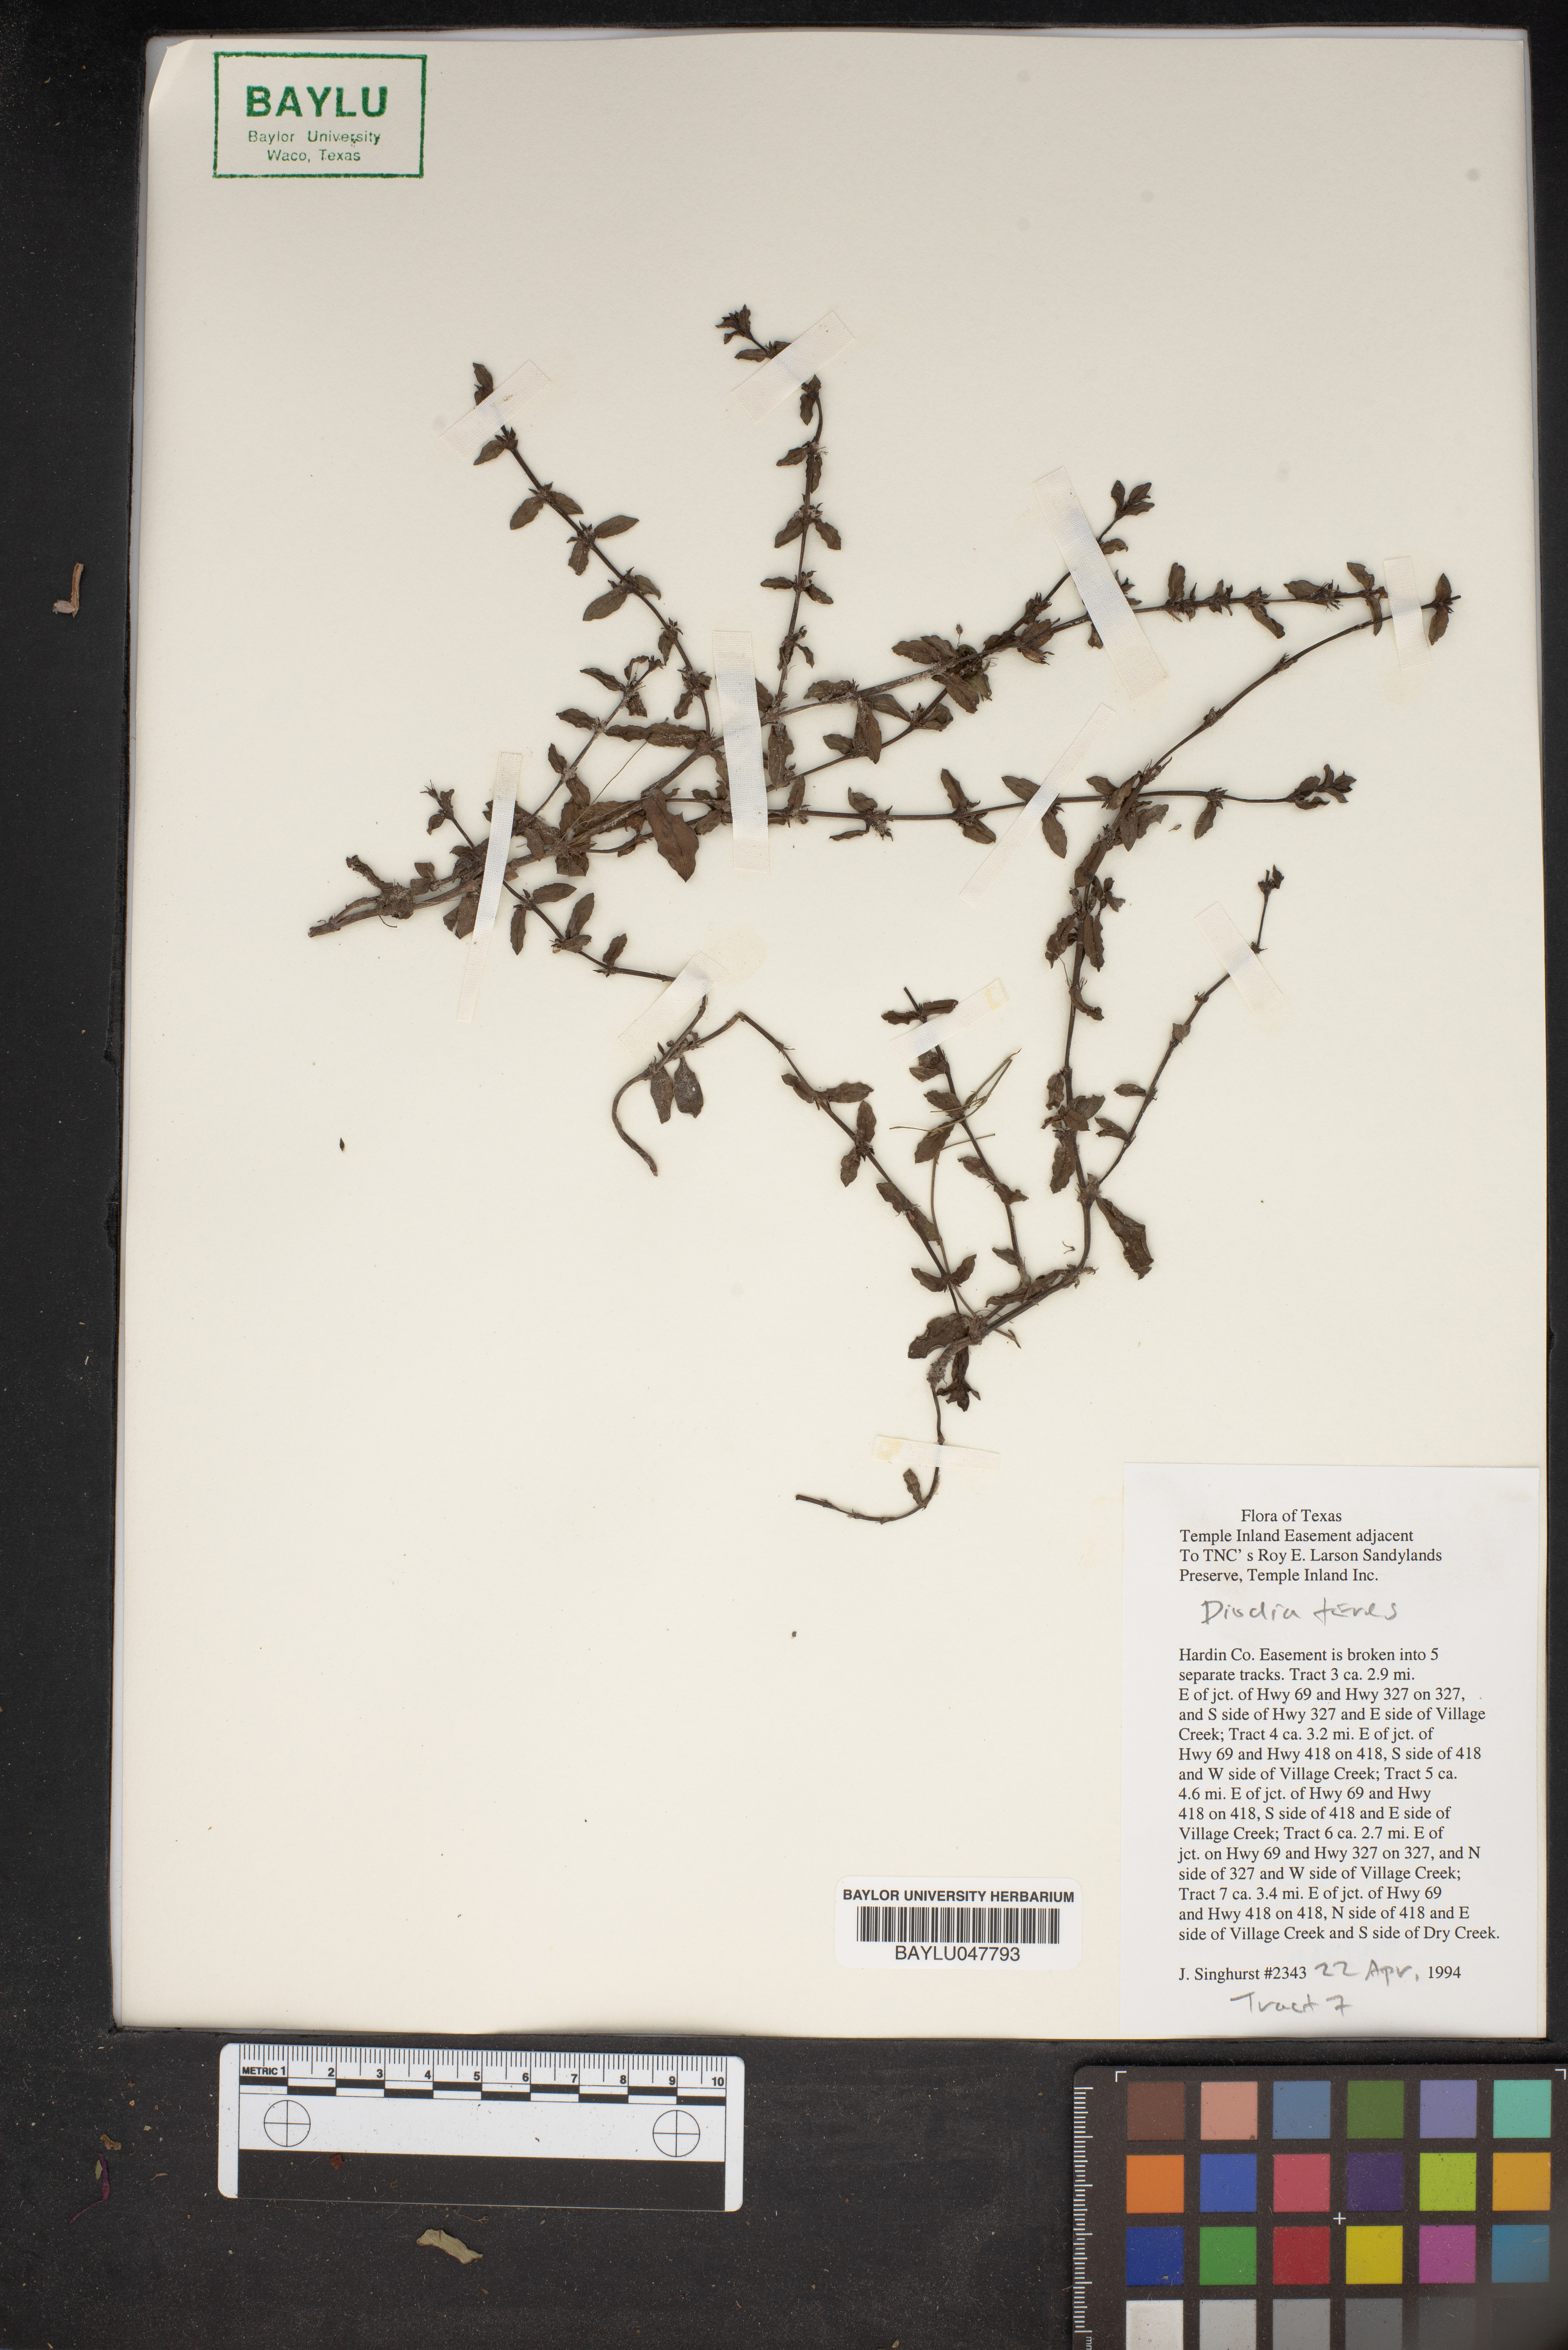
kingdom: Plantae
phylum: Tracheophyta
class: Magnoliopsida
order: Gentianales
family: Rubiaceae
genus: Hexasepalum
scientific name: Hexasepalum teres
